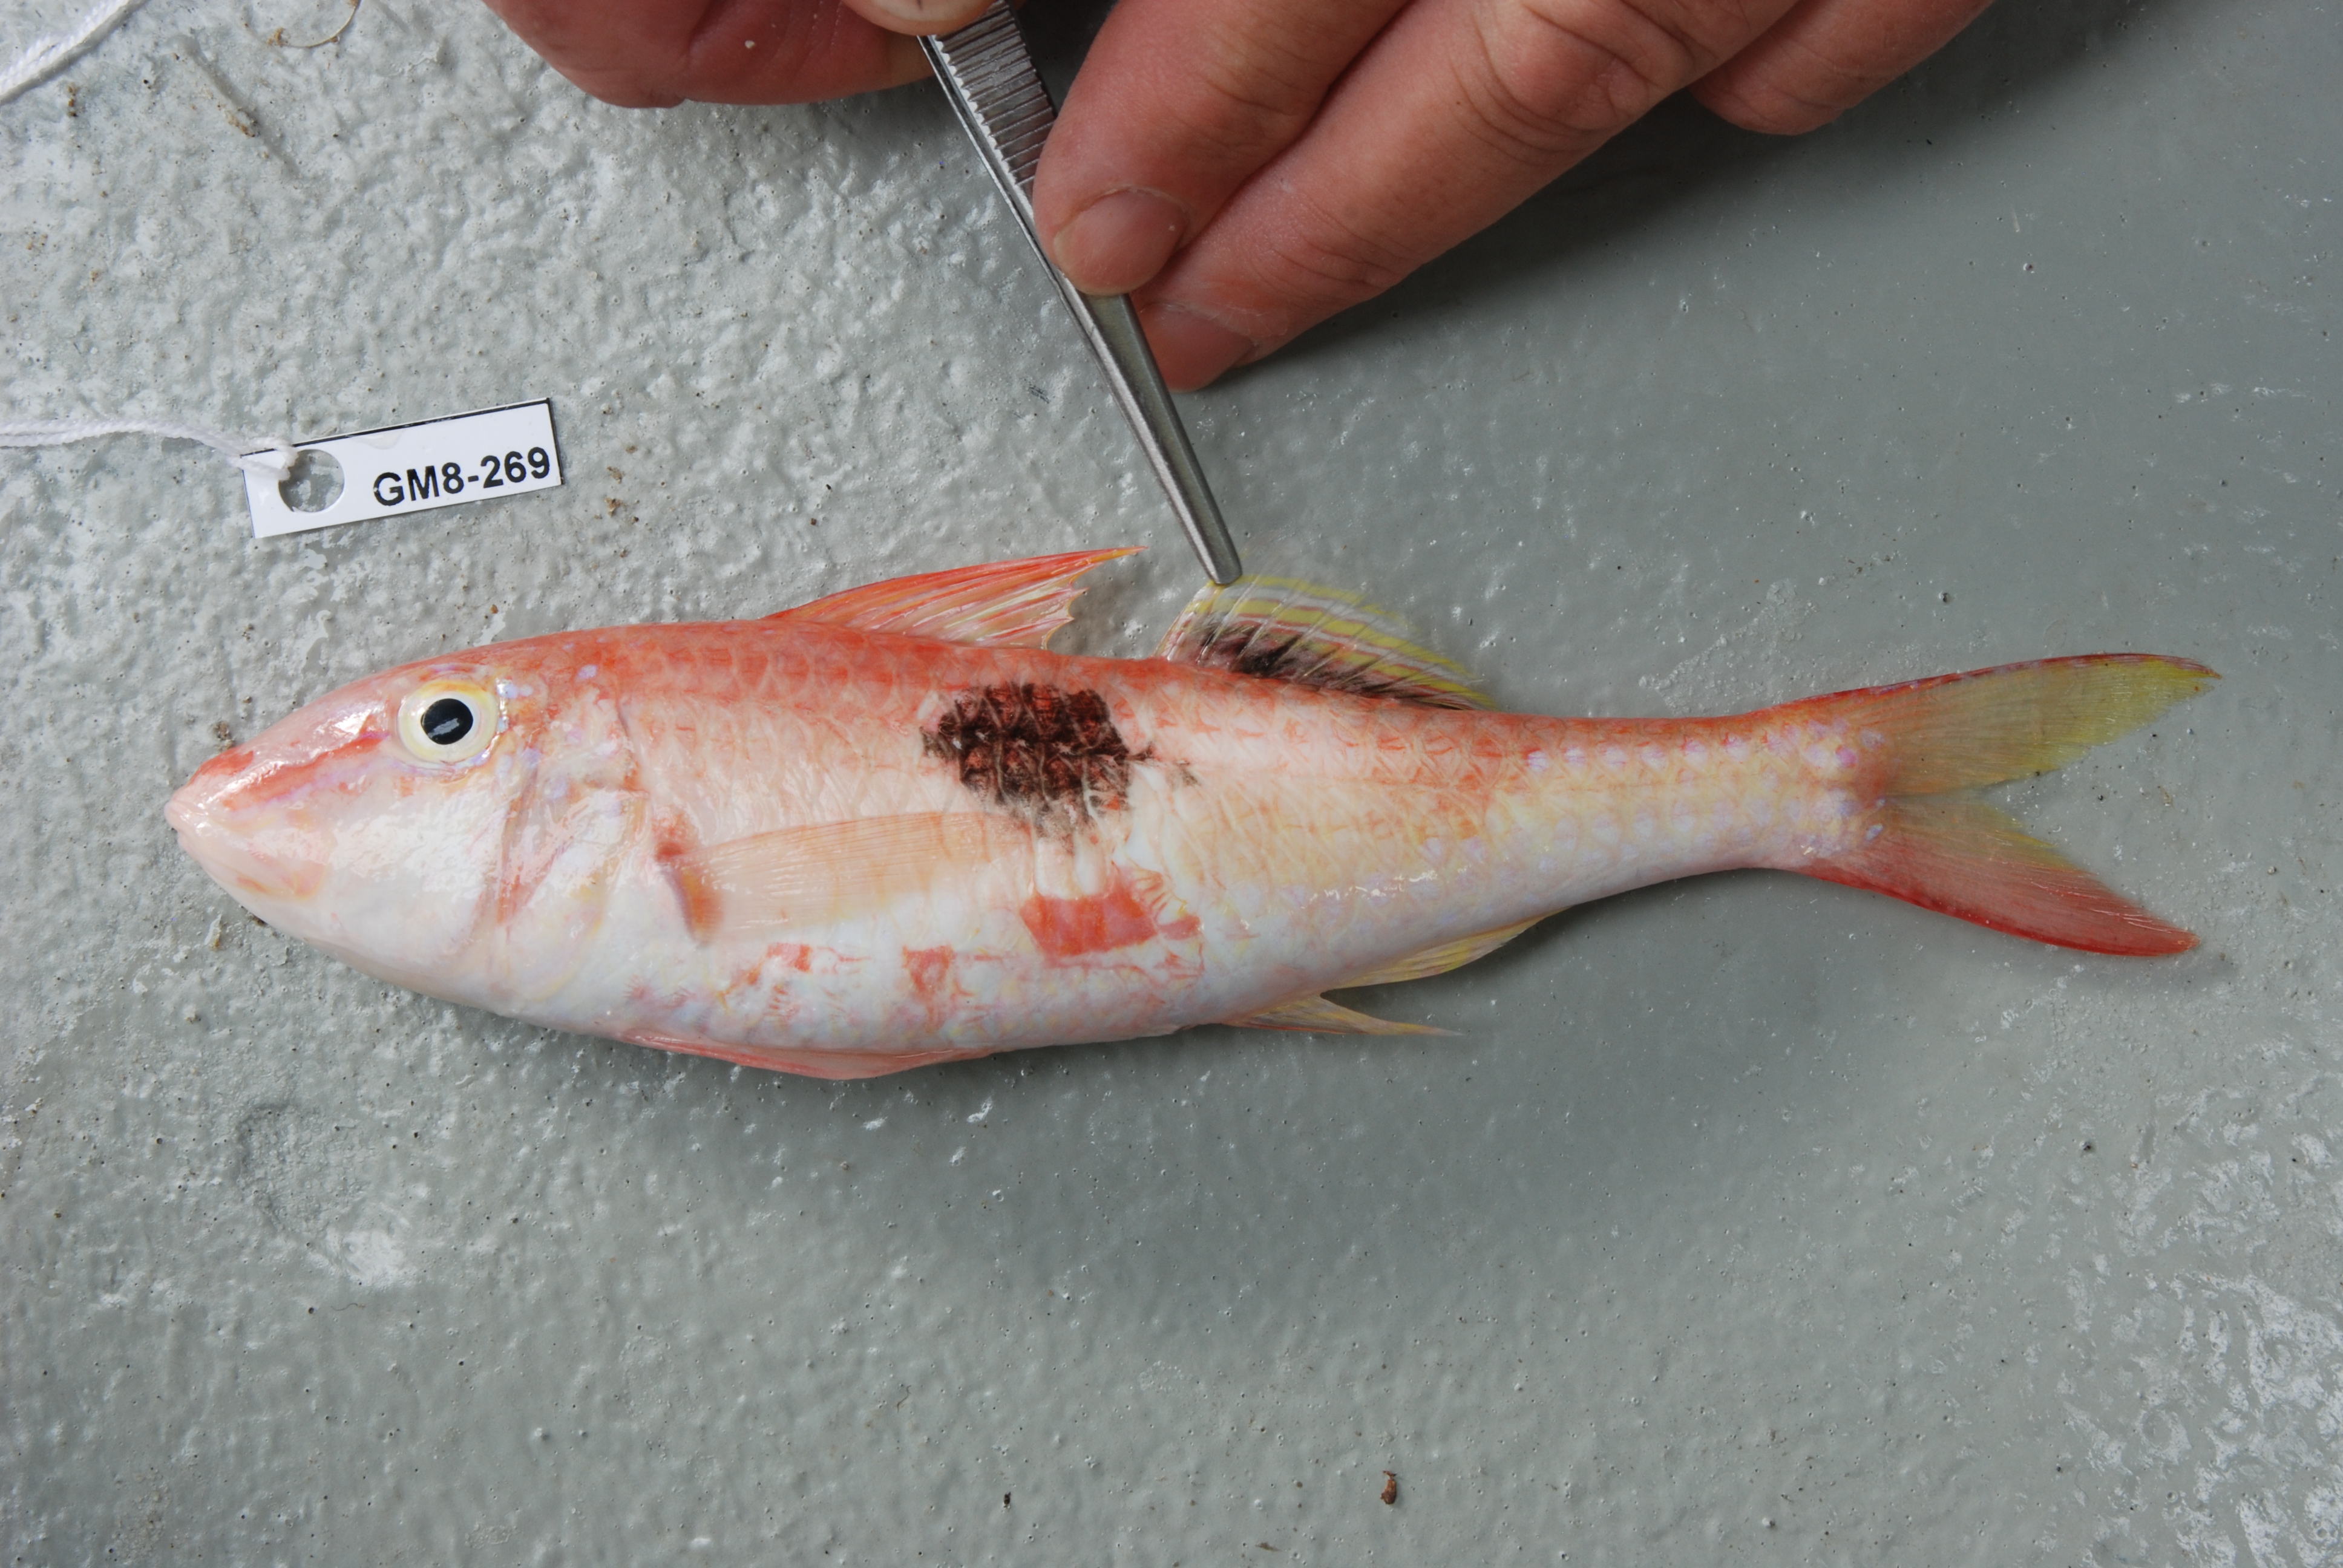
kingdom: Animalia
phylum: Chordata
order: Perciformes
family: Mullidae
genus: Parupeneus
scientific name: Parupeneus pleurostigma
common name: Sidespot goatfish
